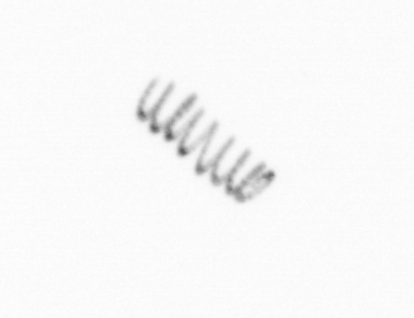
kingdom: Chromista
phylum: Ochrophyta
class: Bacillariophyceae
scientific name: Bacillariophyceae
